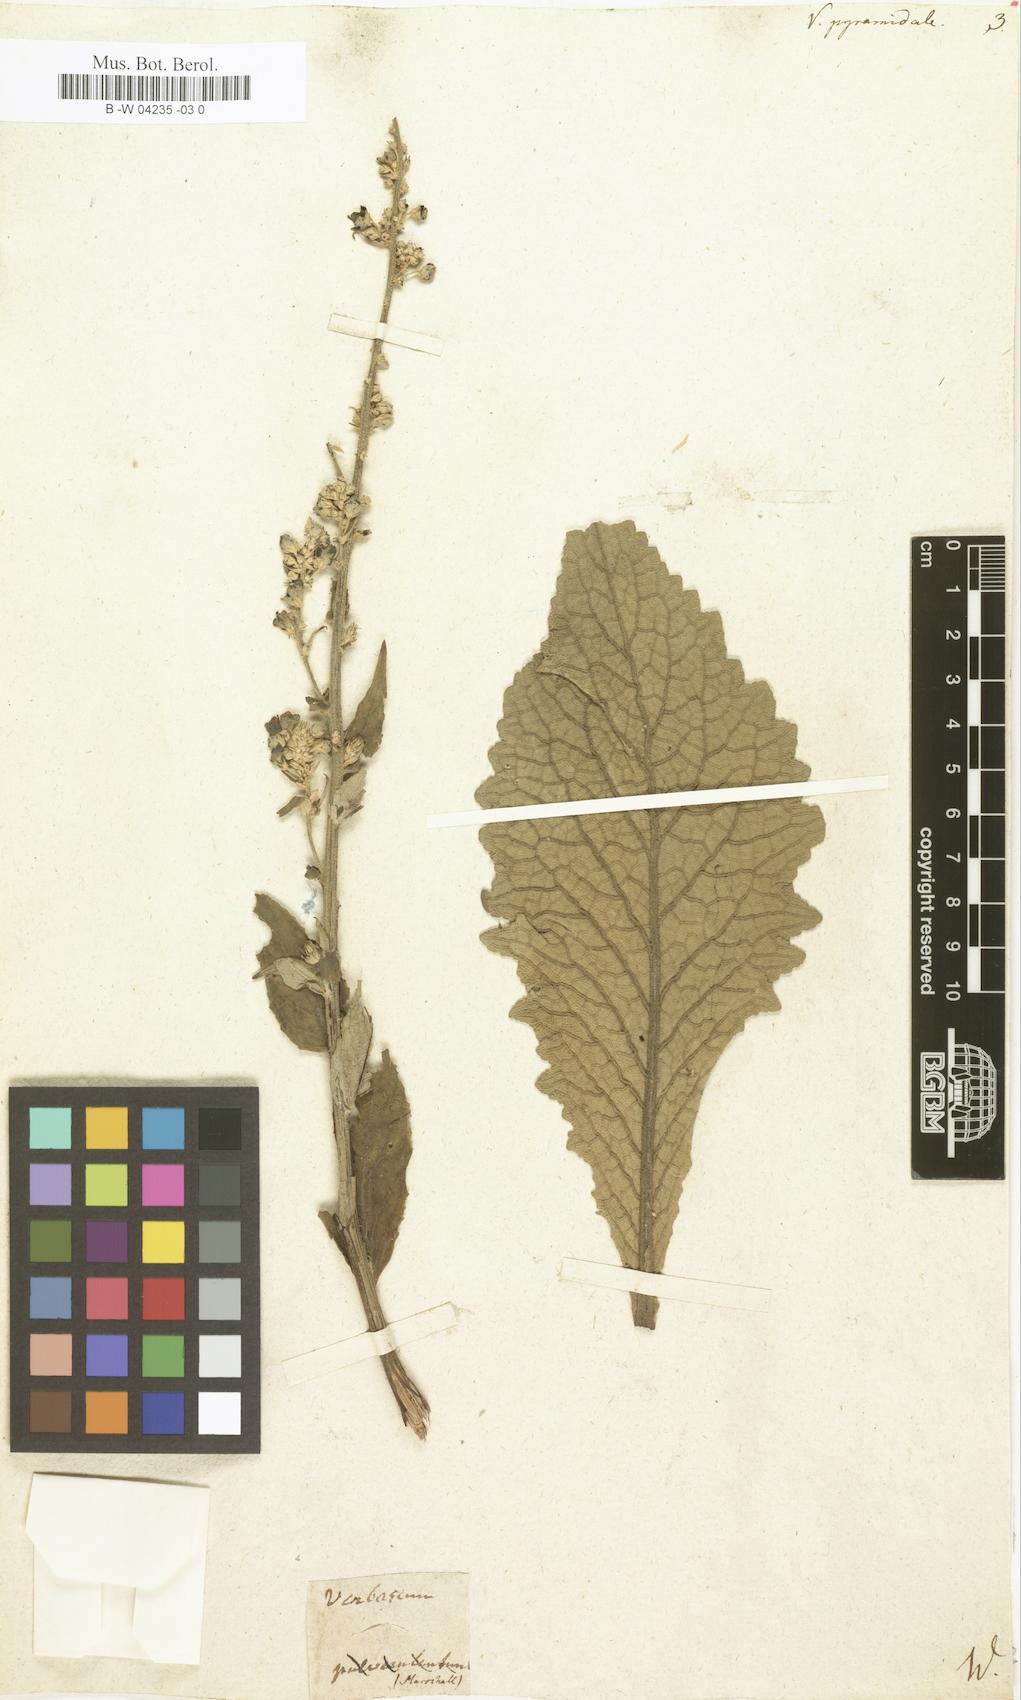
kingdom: Plantae
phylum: Tracheophyta
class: Magnoliopsida
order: Lamiales
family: Scrophulariaceae
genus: Verbascum
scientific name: Verbascum
